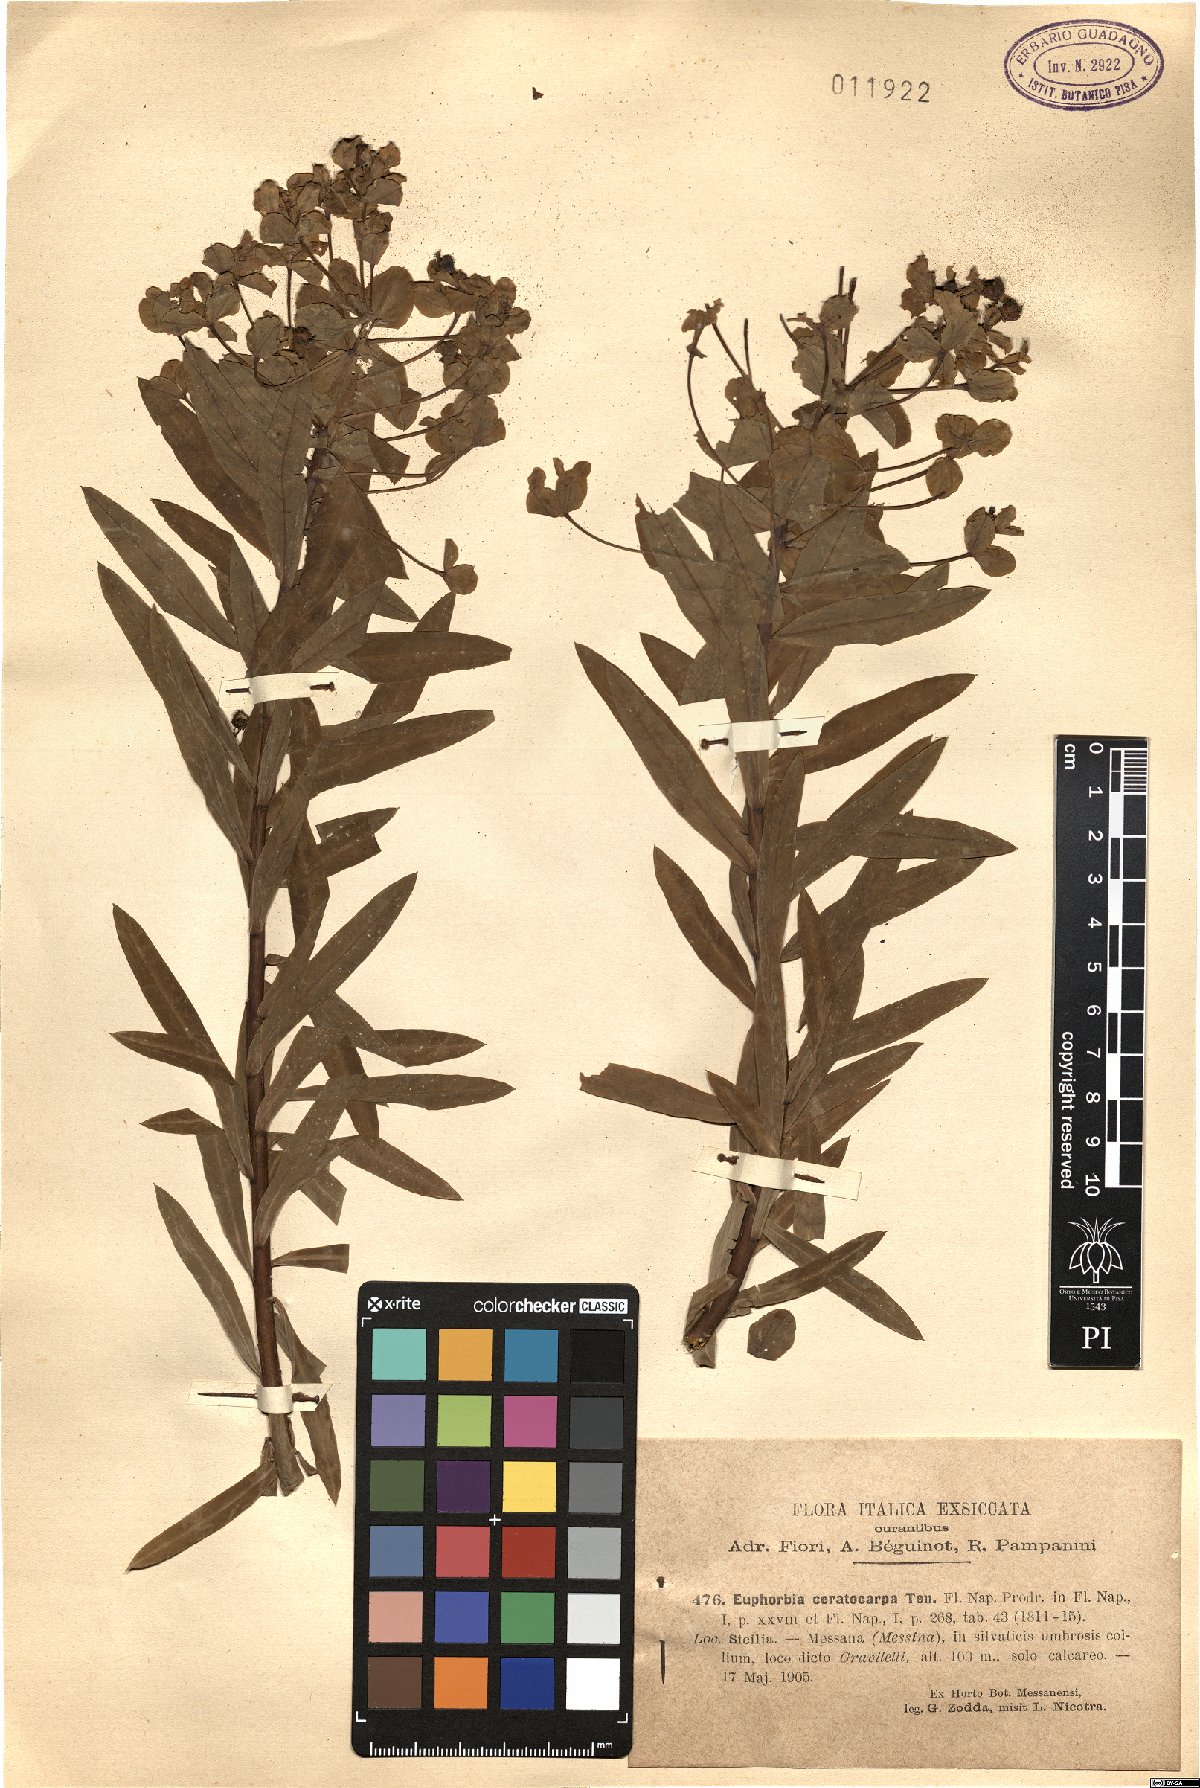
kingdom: Plantae
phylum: Tracheophyta
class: Magnoliopsida
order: Malpighiales
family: Euphorbiaceae
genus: Euphorbia
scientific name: Euphorbia ceratocarpa
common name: Horned spurge
